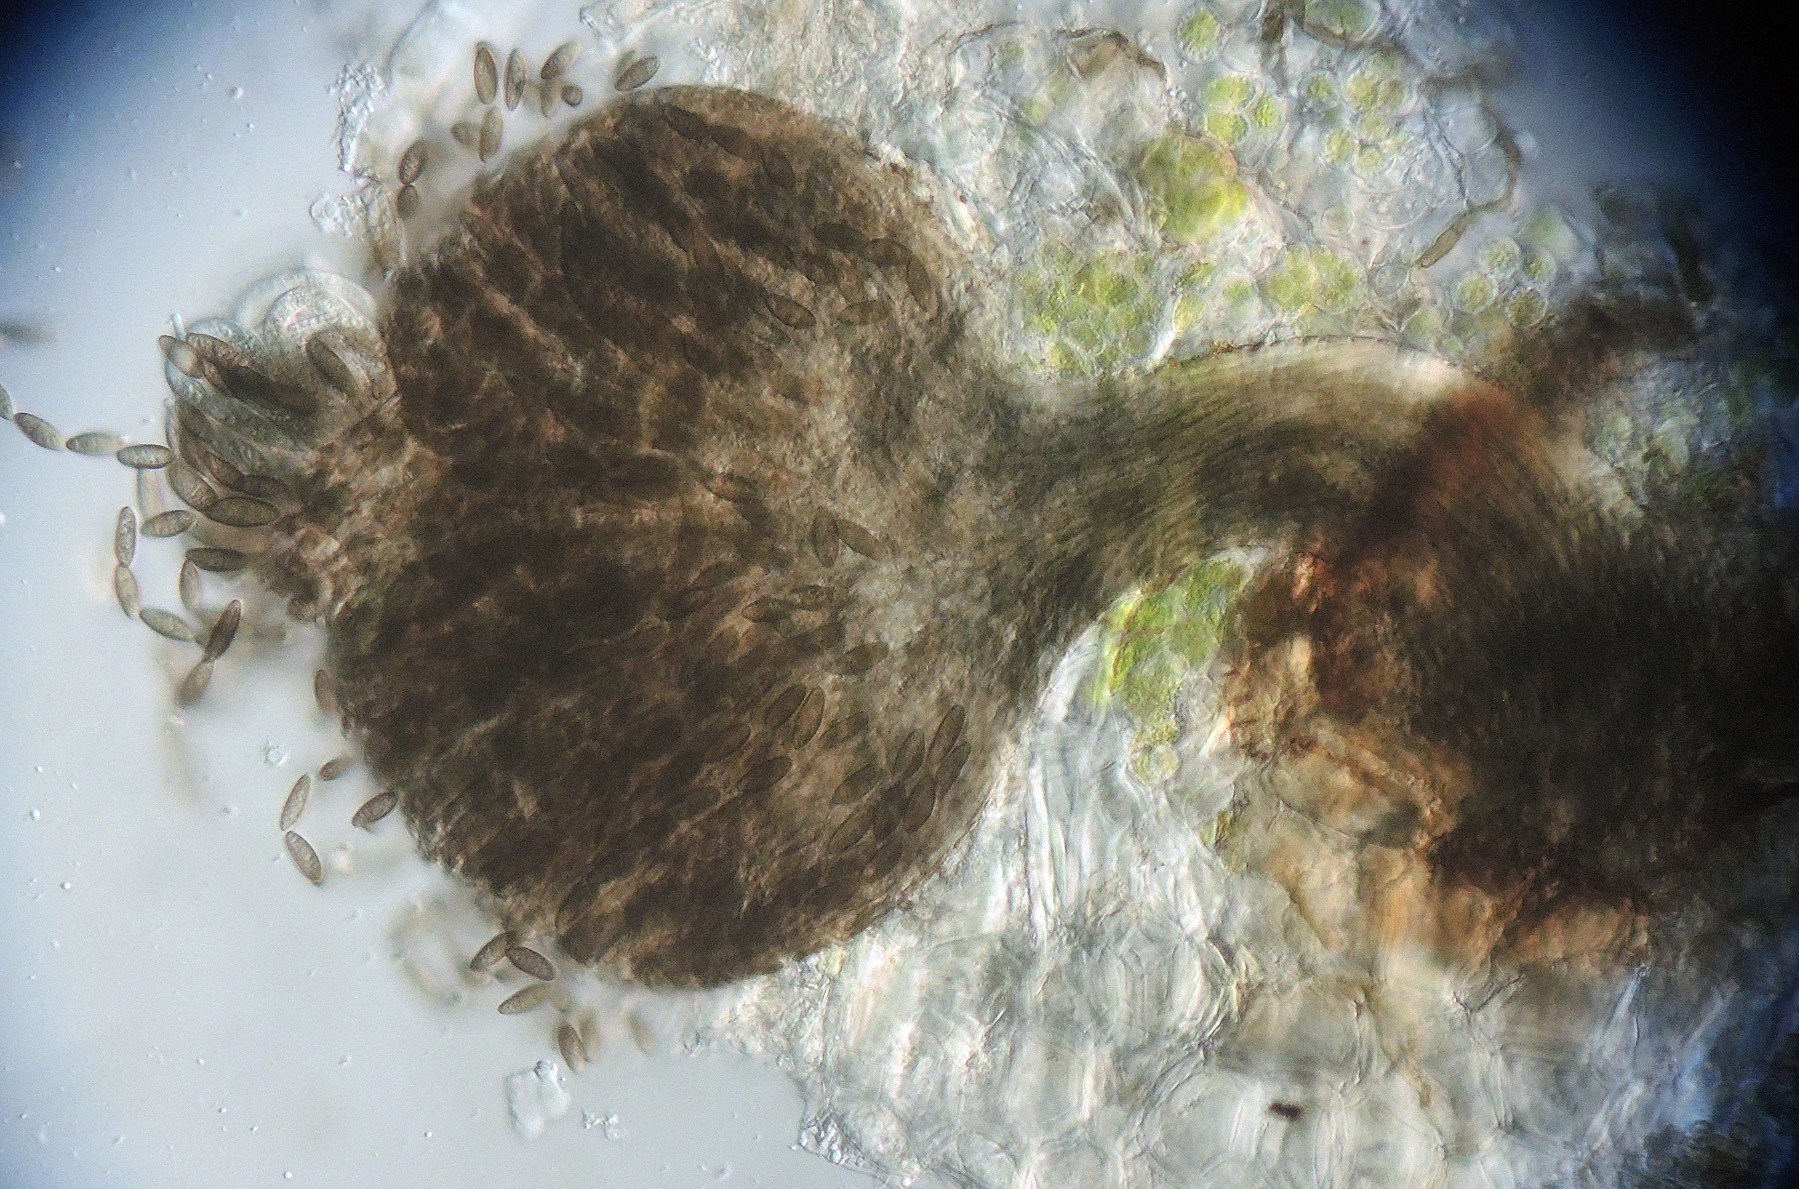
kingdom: Fungi
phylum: Ascomycota
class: Eurotiomycetes
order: Mycocaliciales
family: Mycocaliciaceae
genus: Stenocybe
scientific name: Stenocybe pullatula
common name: elle-nålesvamp
